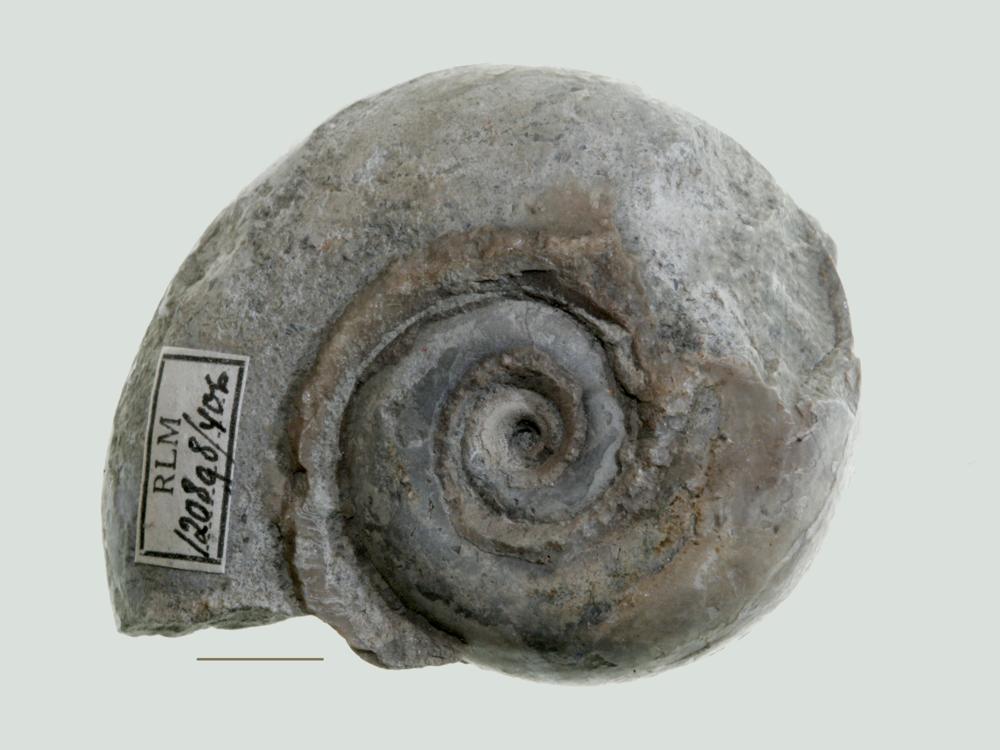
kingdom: Animalia
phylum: Mollusca
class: Gastropoda
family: Lesueurillidae
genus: Lesueurilla
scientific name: Lesueurilla Maclurea infundibulum
